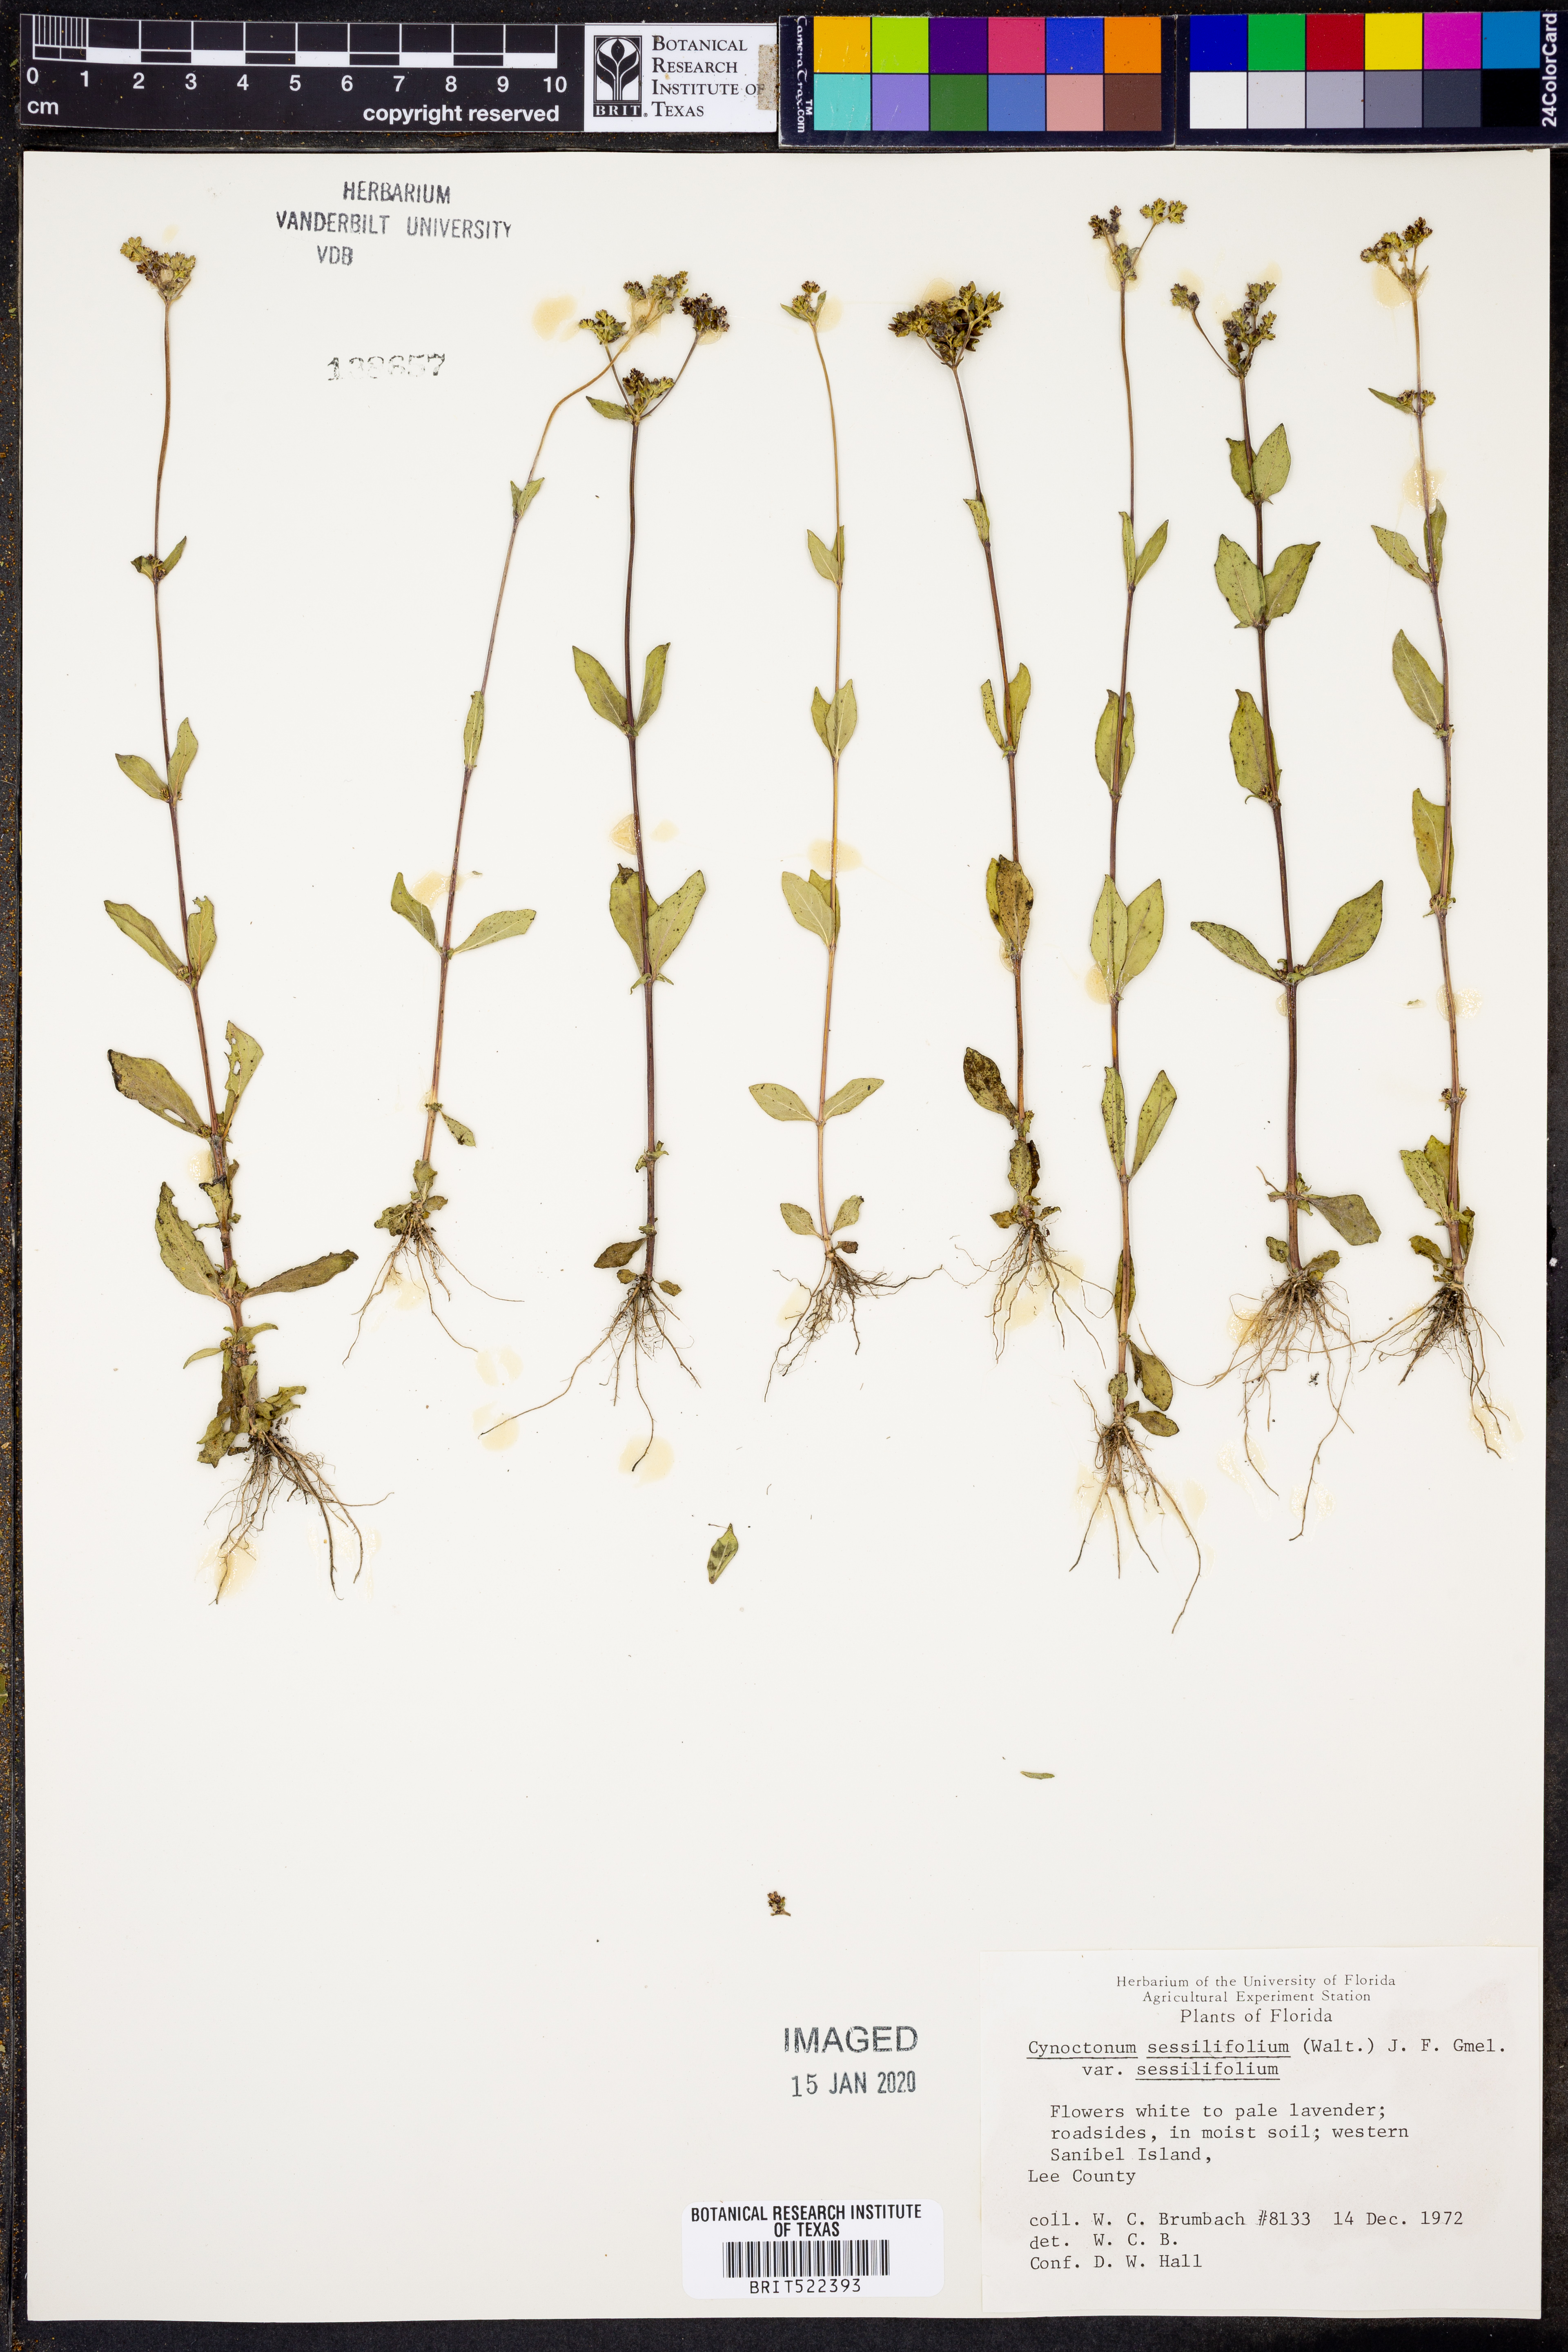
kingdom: Plantae
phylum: Tracheophyta
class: Magnoliopsida
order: Gentianales
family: Loganiaceae
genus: Mitreola
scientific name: Mitreola sessilifolia
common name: Swamp hornpod
